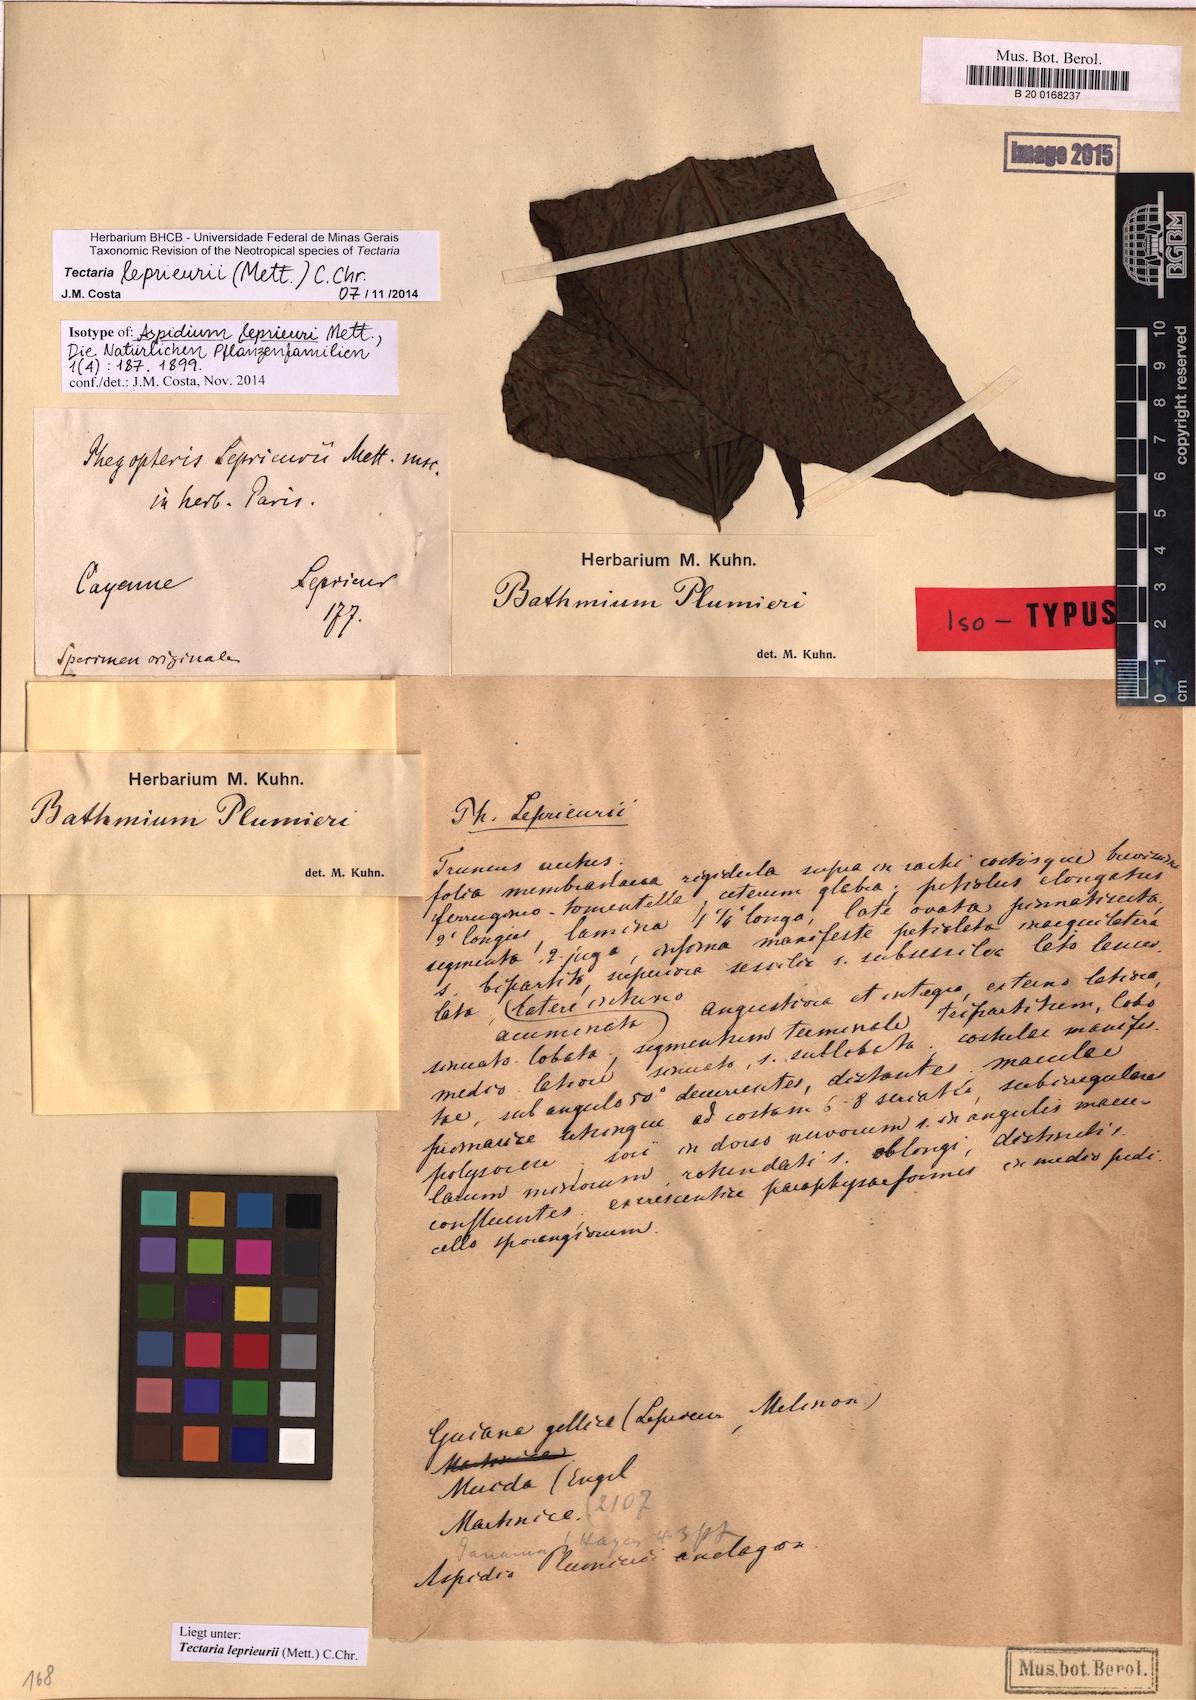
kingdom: Plantae
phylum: Tracheophyta
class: Polypodiopsida
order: Polypodiales
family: Tectariaceae
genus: Tectaria
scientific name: Tectaria leprieurii
